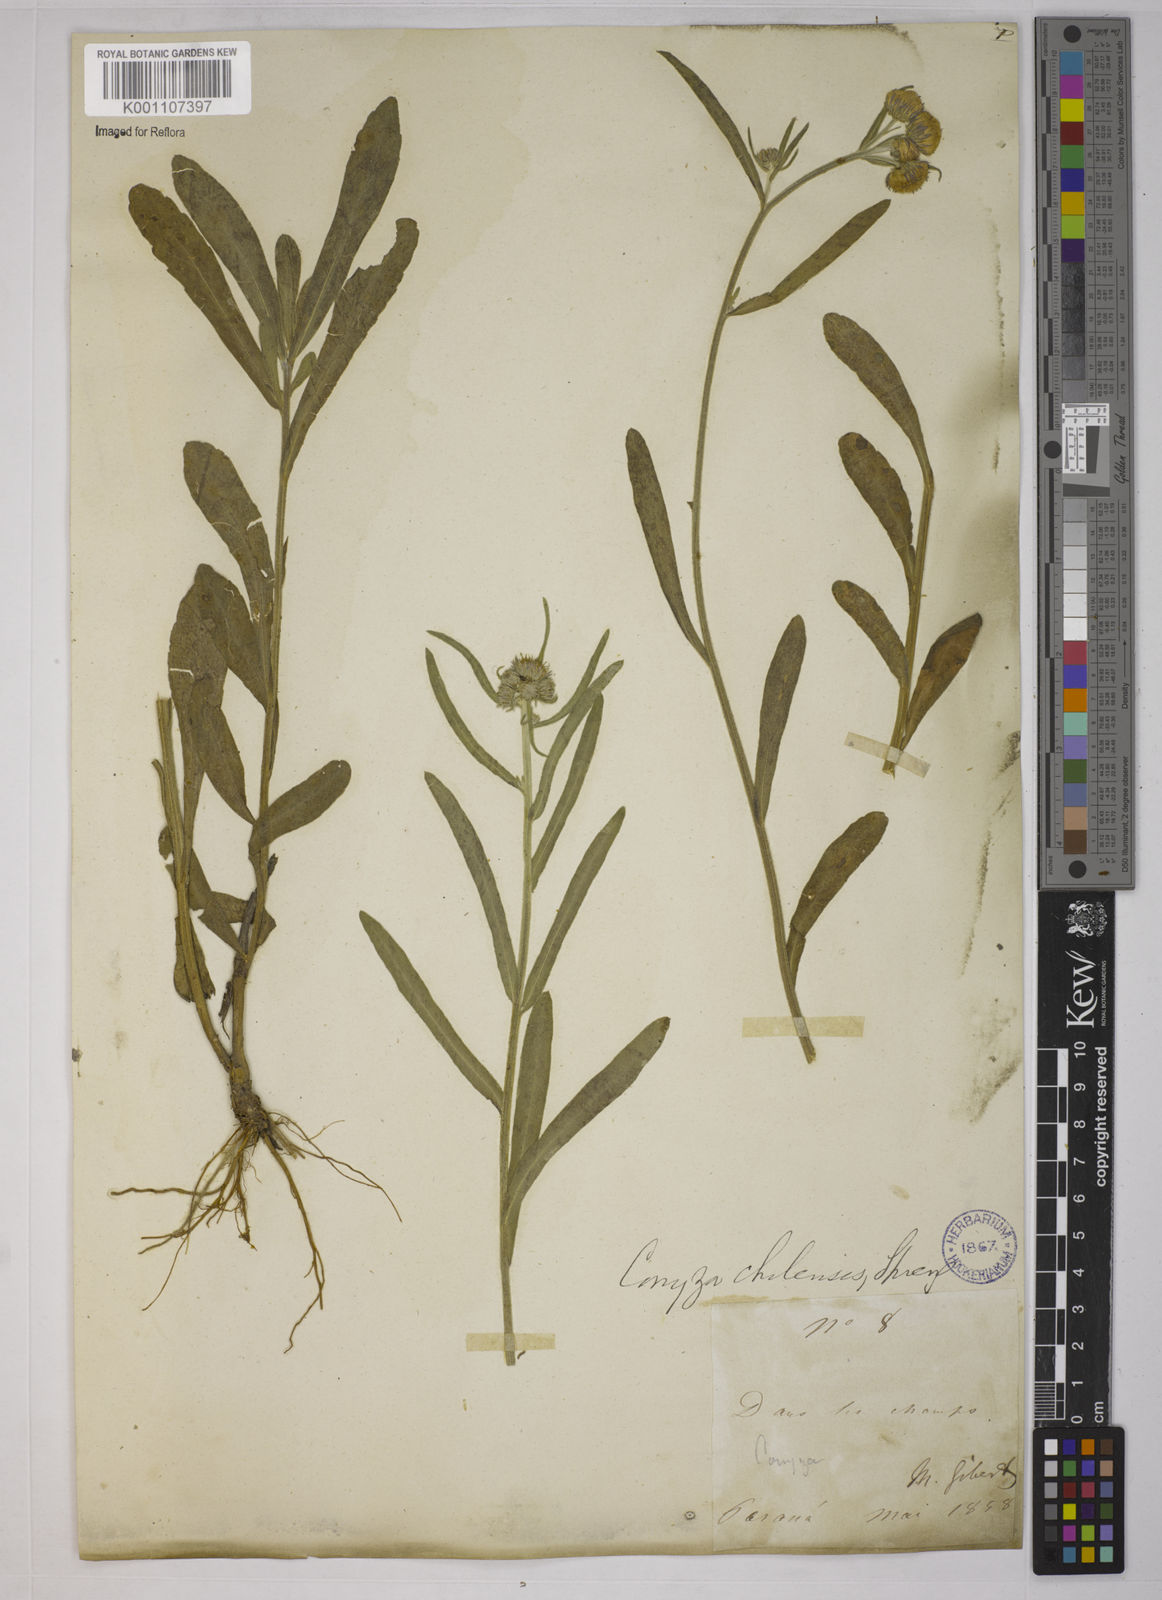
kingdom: Plantae
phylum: Tracheophyta
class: Magnoliopsida
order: Asterales
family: Asteraceae
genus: Conyza
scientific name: Conyza
